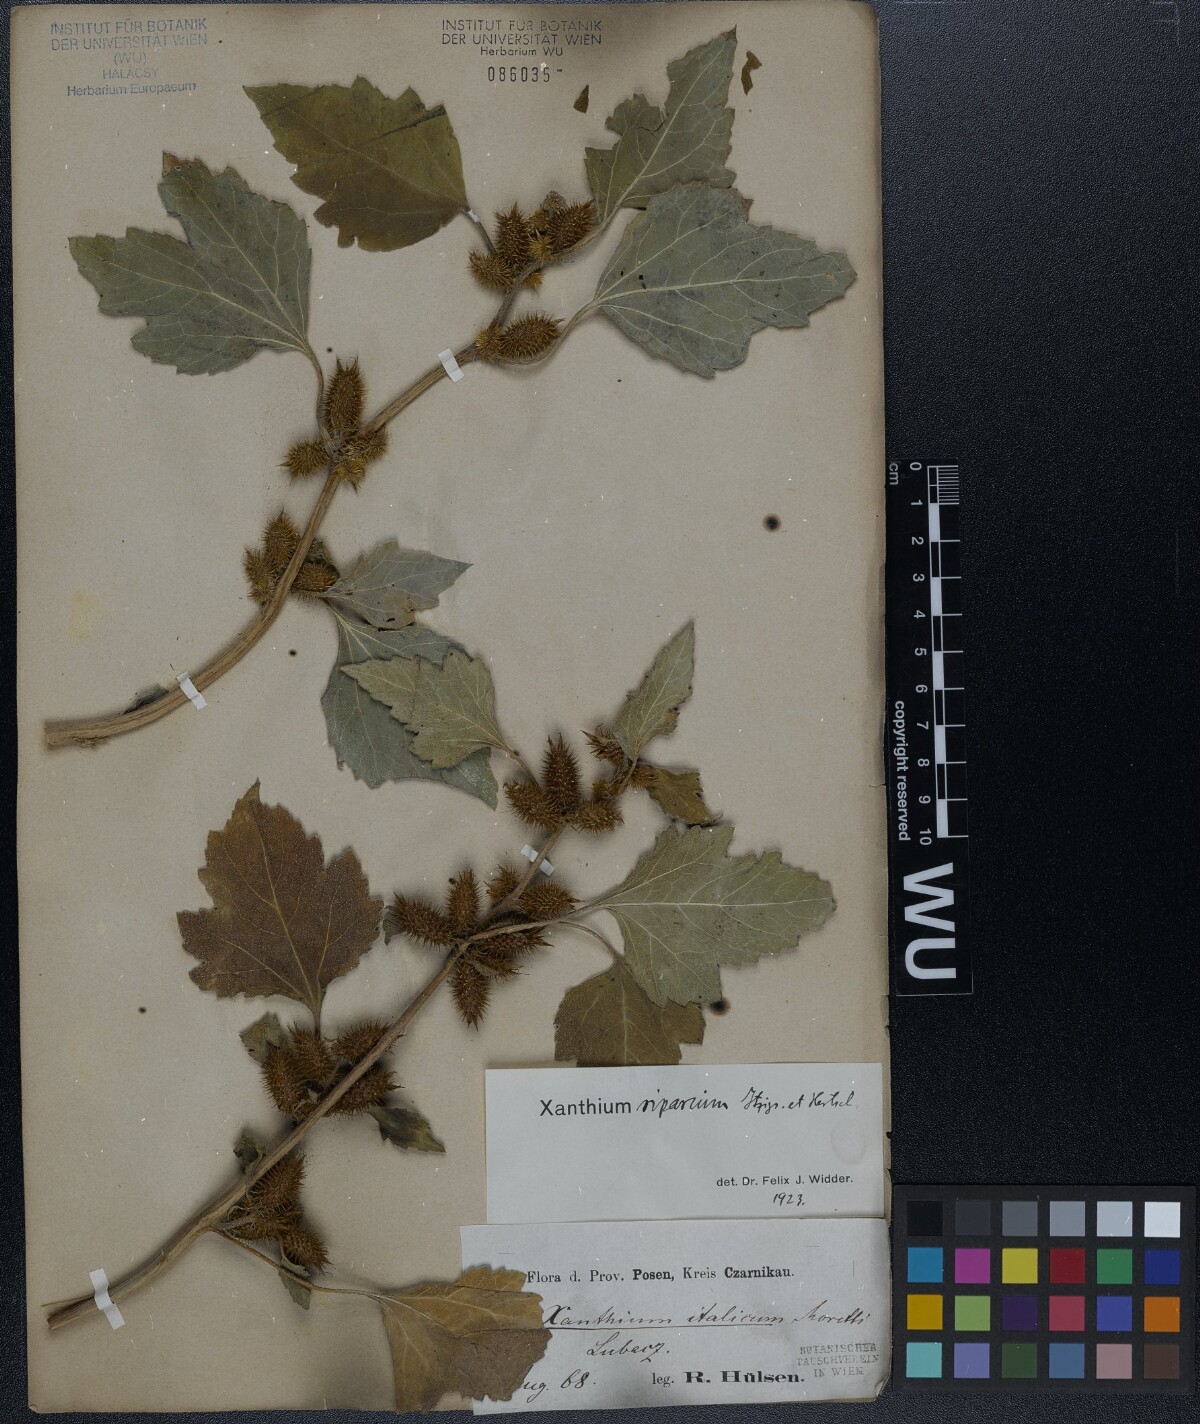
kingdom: Plantae
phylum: Tracheophyta
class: Magnoliopsida
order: Asterales
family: Asteraceae
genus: Xanthium
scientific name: Xanthium orientale
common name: Californian burr
